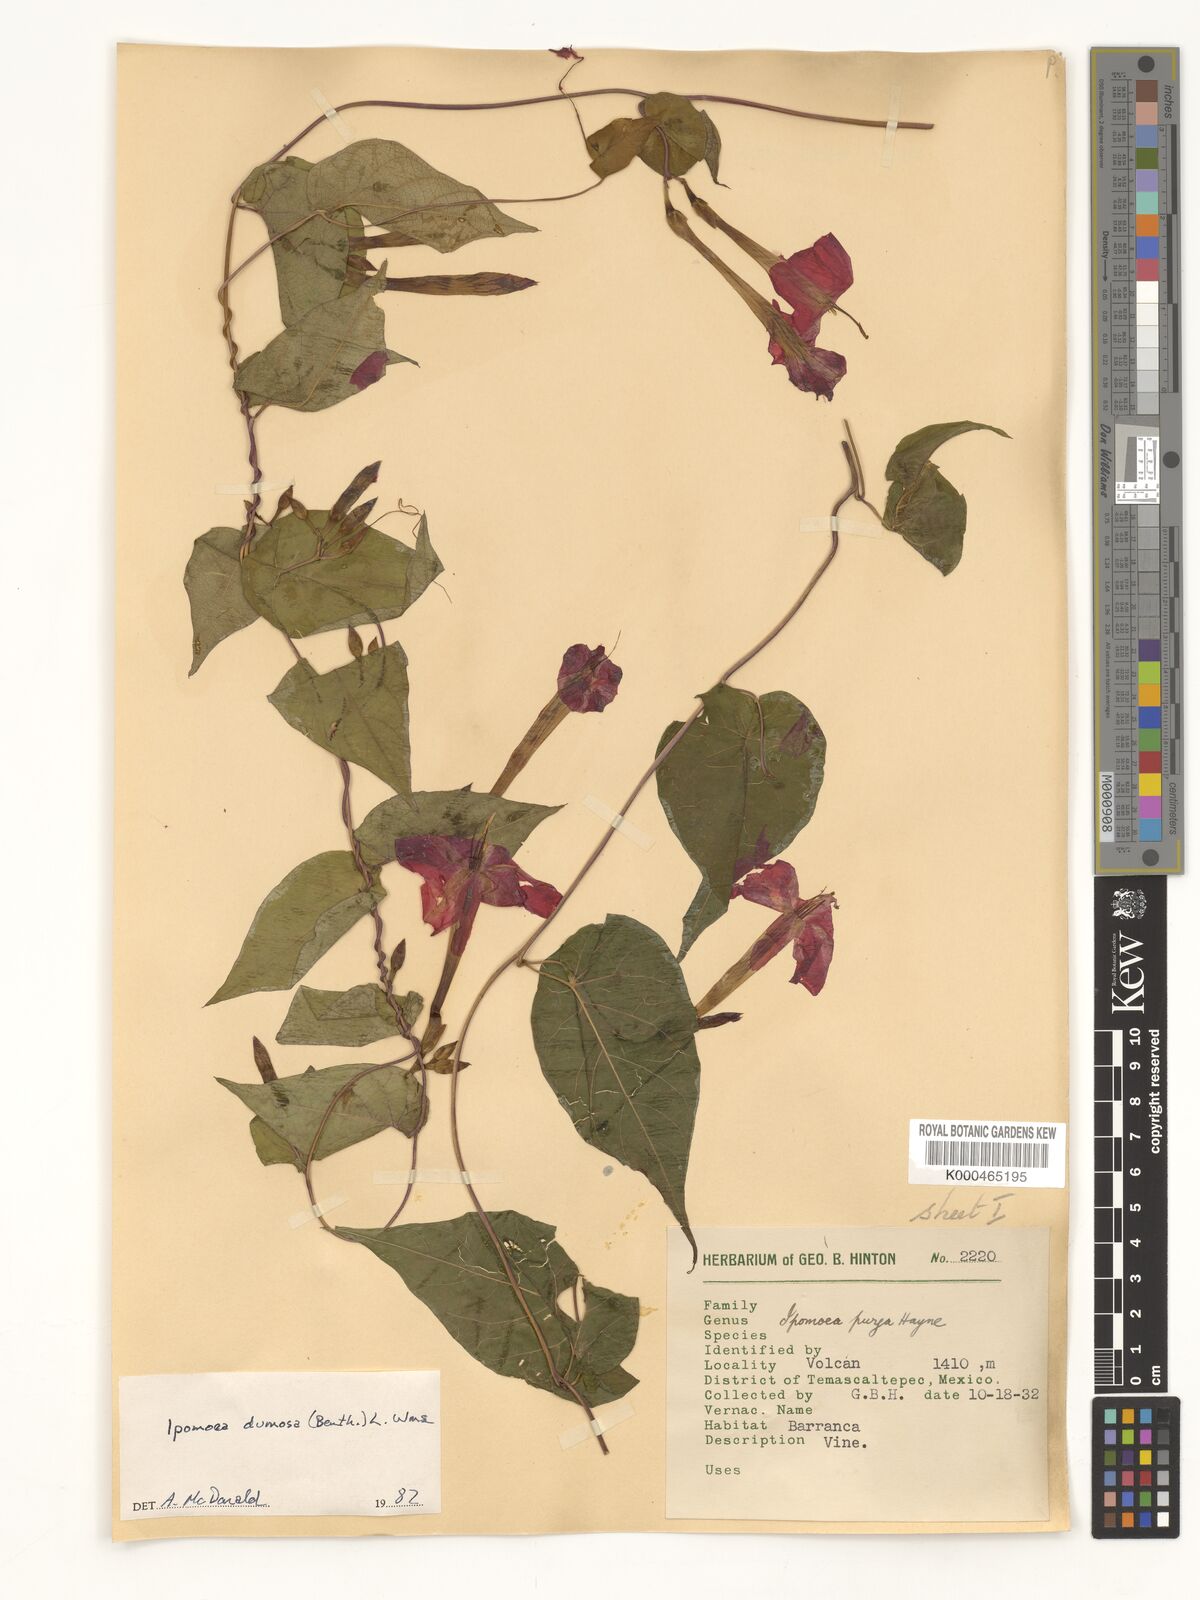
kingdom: Plantae
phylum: Tracheophyta
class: Magnoliopsida
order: Solanales
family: Convolvulaceae
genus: Ipomoea
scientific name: Ipomoea dumosa
